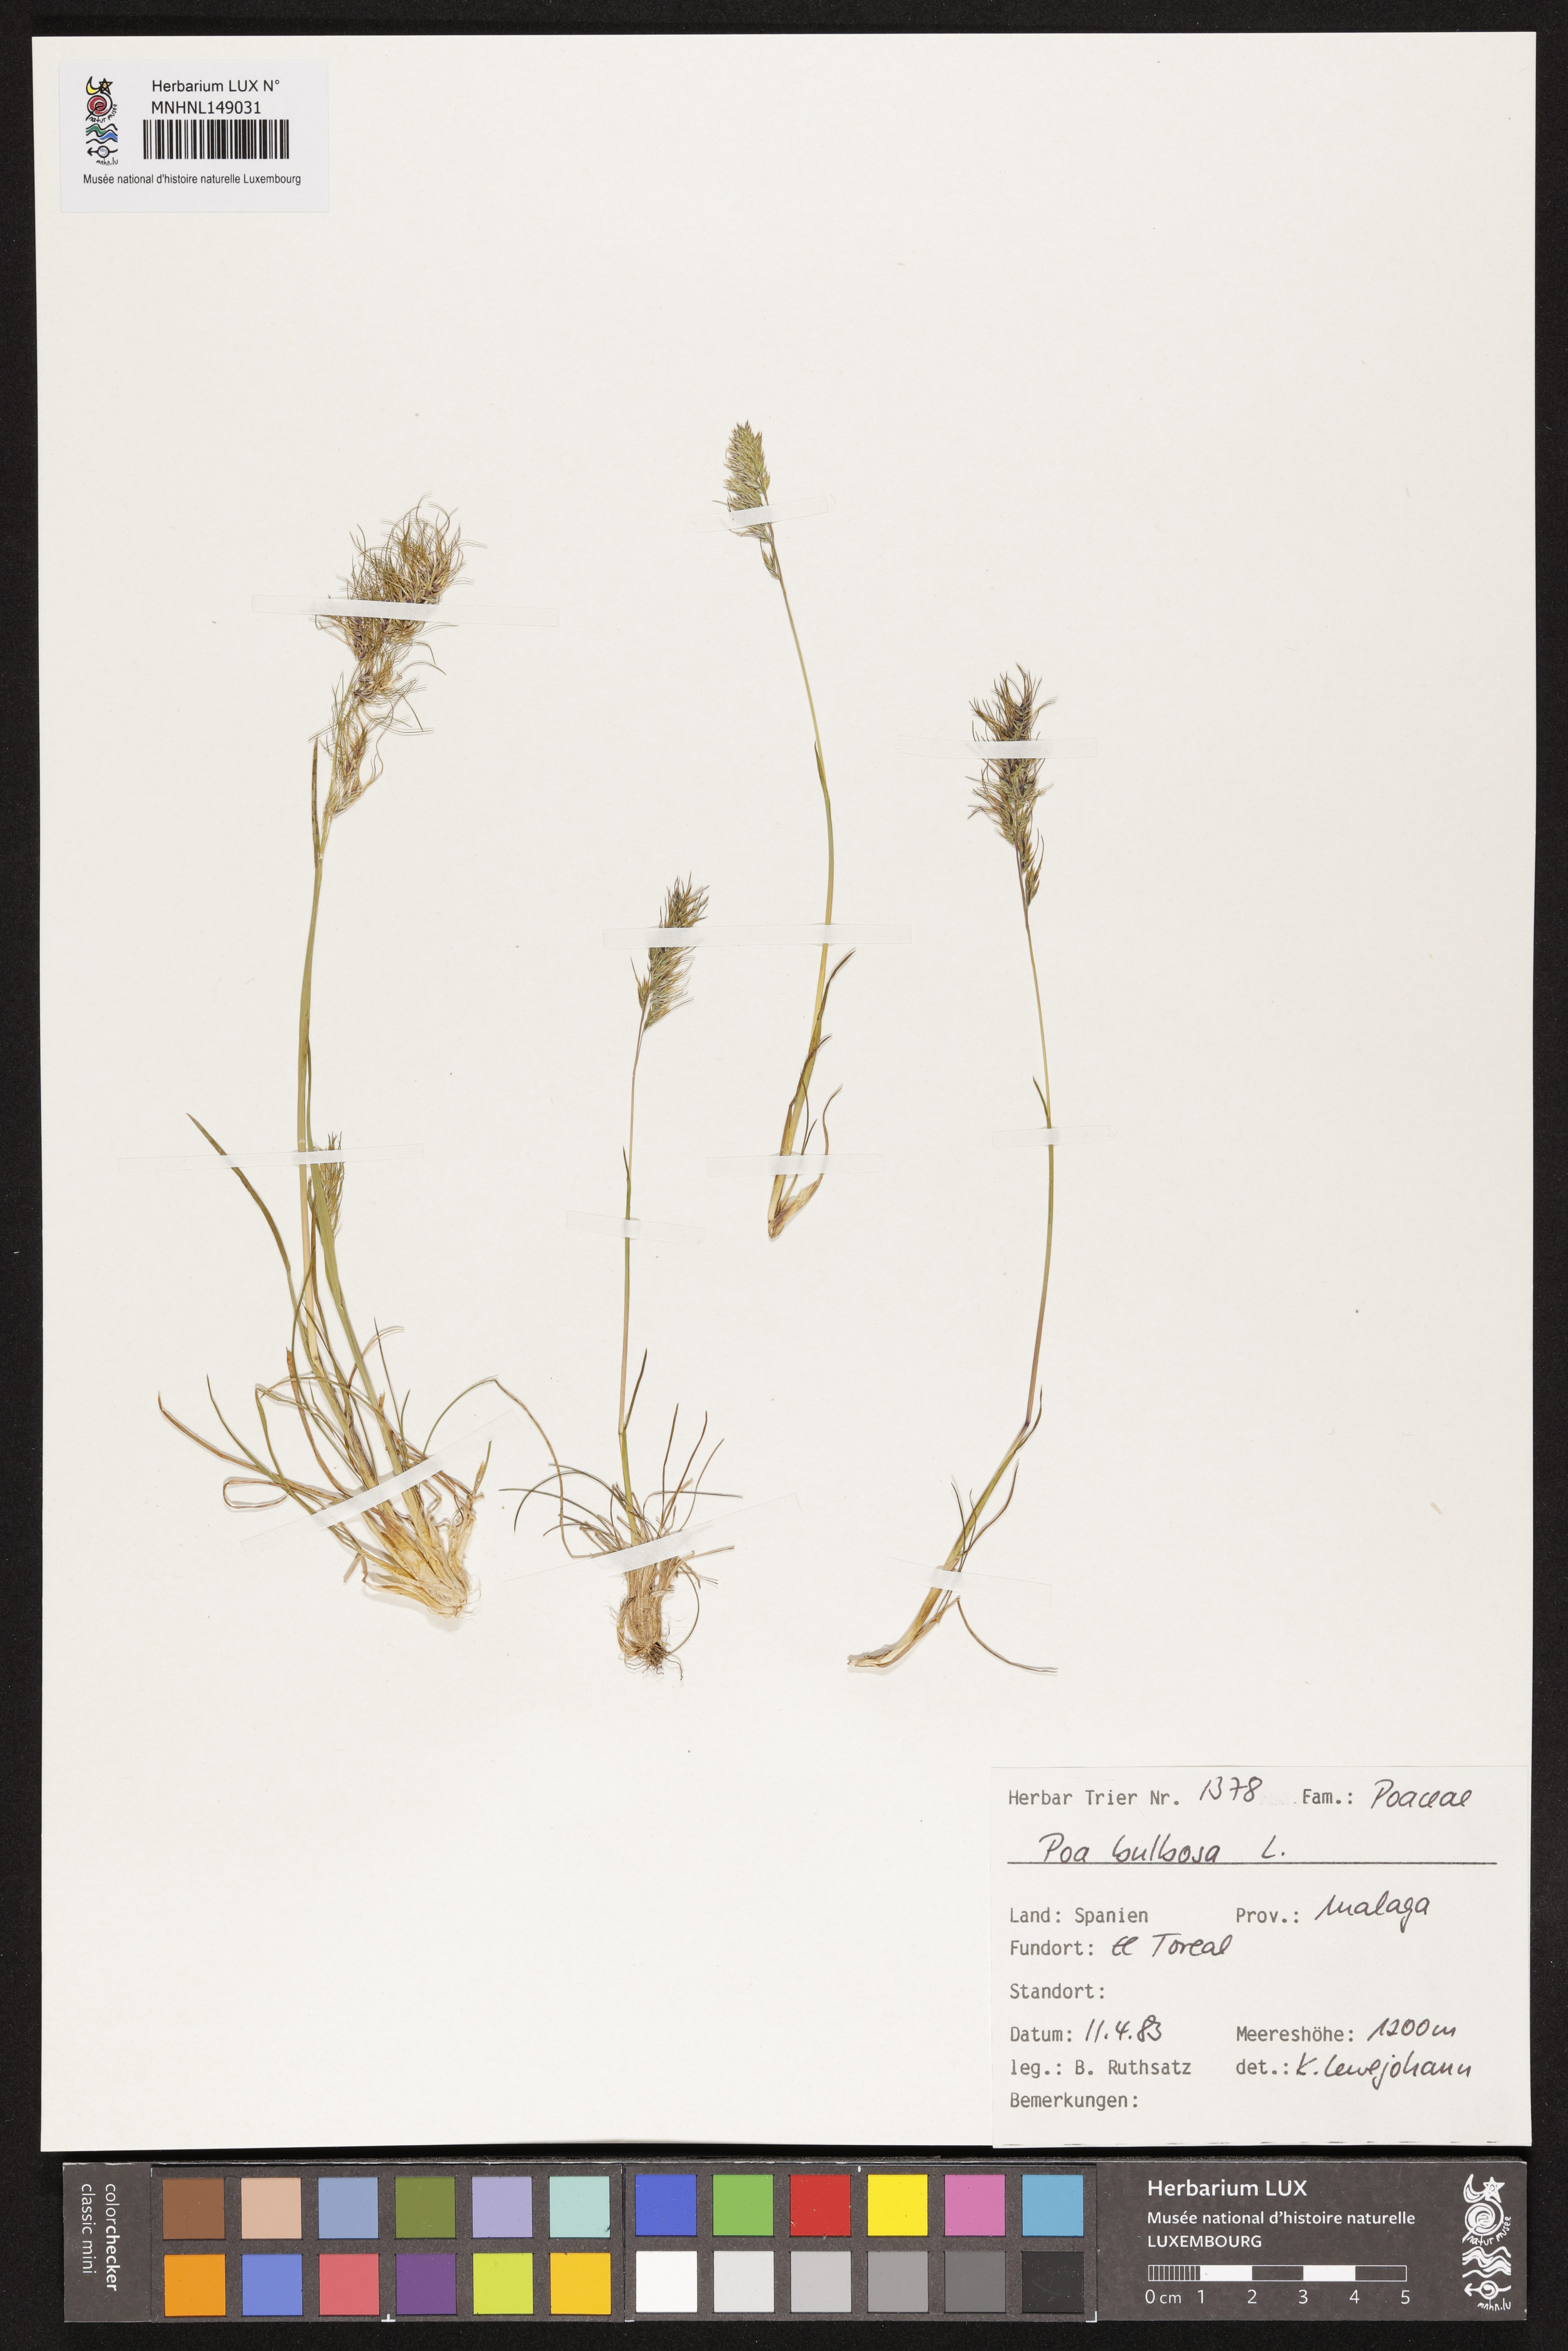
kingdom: Plantae
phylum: Tracheophyta
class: Liliopsida
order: Poales
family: Poaceae
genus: Poa
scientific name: Poa bulbosa
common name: Bulbous bluegrass
